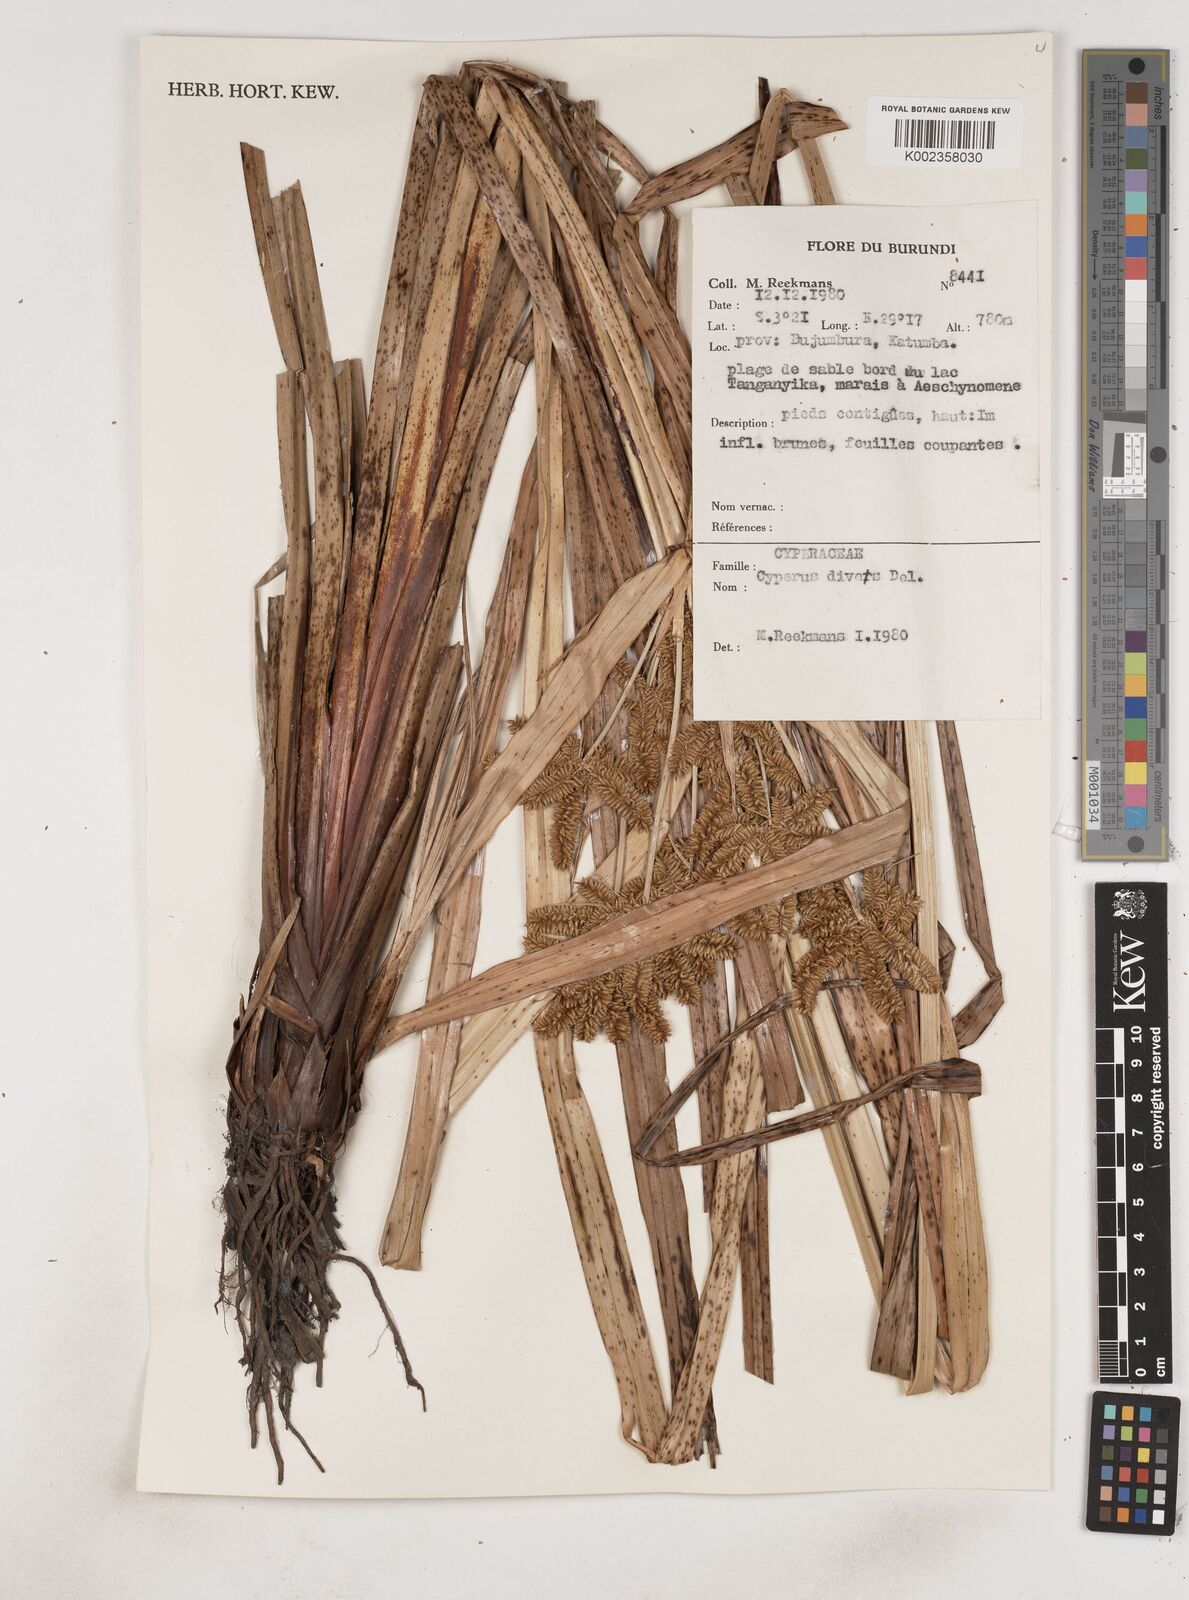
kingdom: Plantae
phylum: Tracheophyta
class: Liliopsida
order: Poales
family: Cyperaceae
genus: Cyperus
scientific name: Cyperus dives
